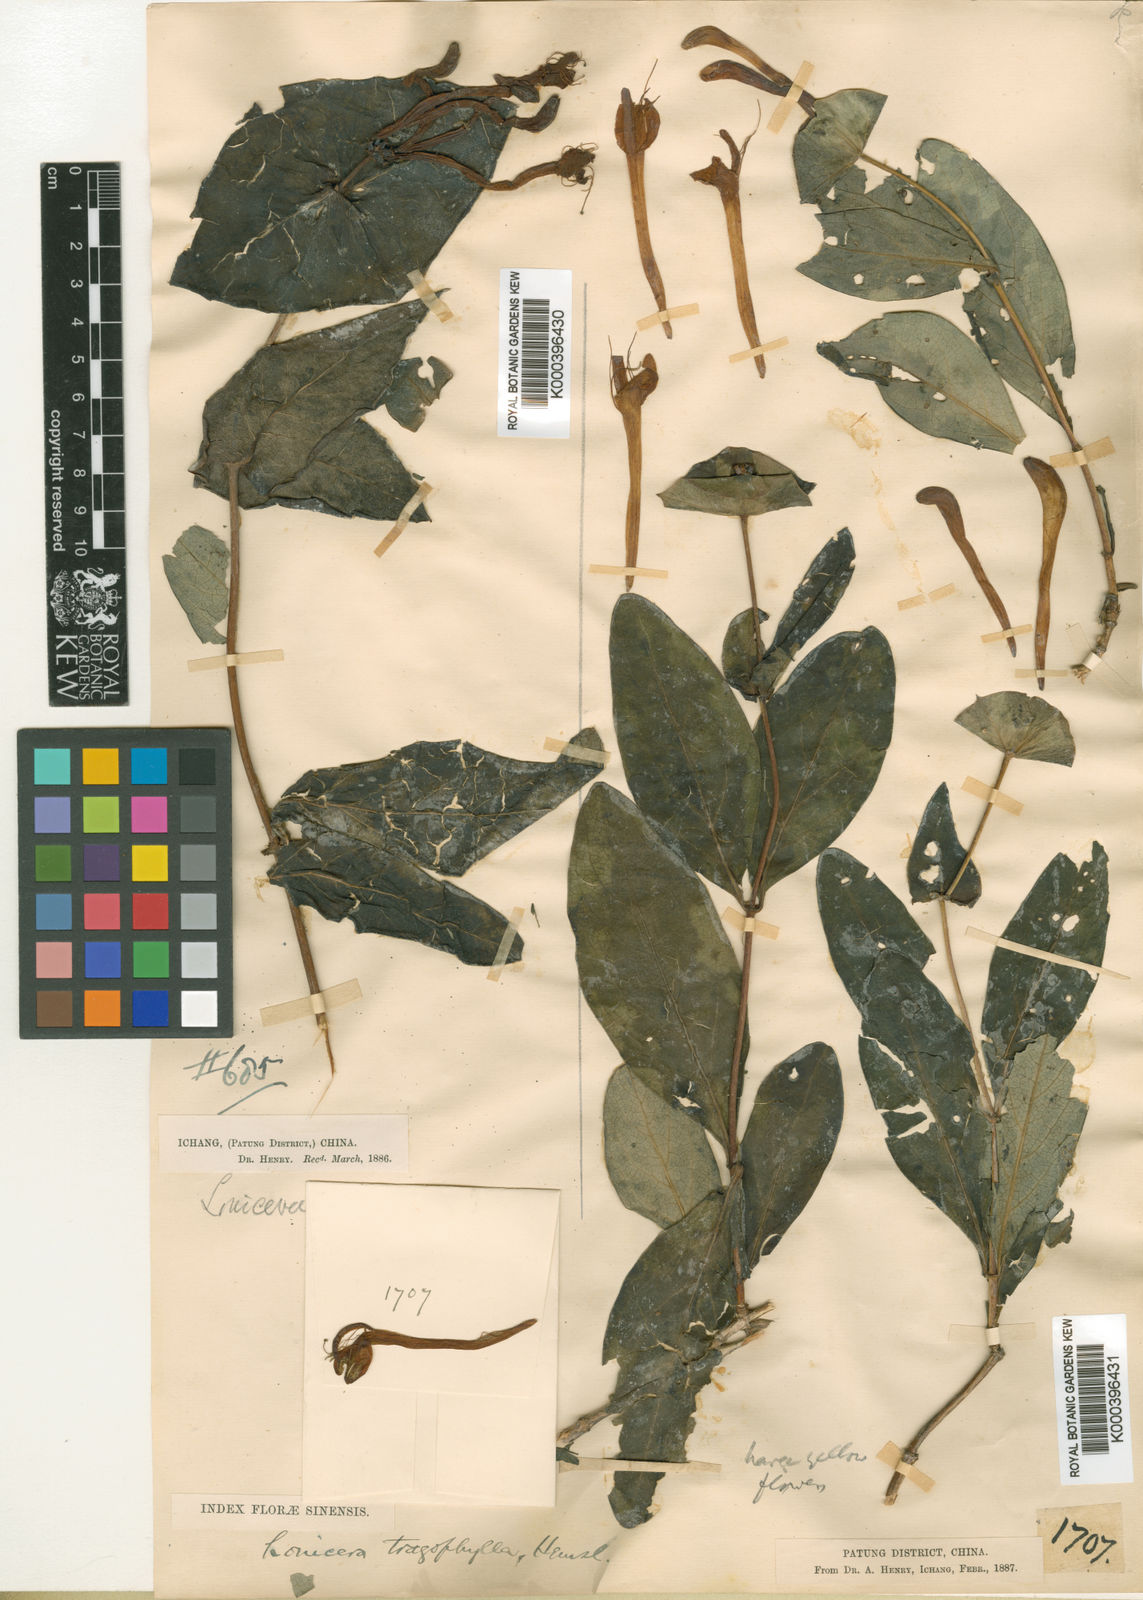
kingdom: Plantae
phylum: Tracheophyta
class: Magnoliopsida
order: Dipsacales
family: Caprifoliaceae
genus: Lonicera
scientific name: Lonicera tragophylla
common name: Yellow honeysuckle
